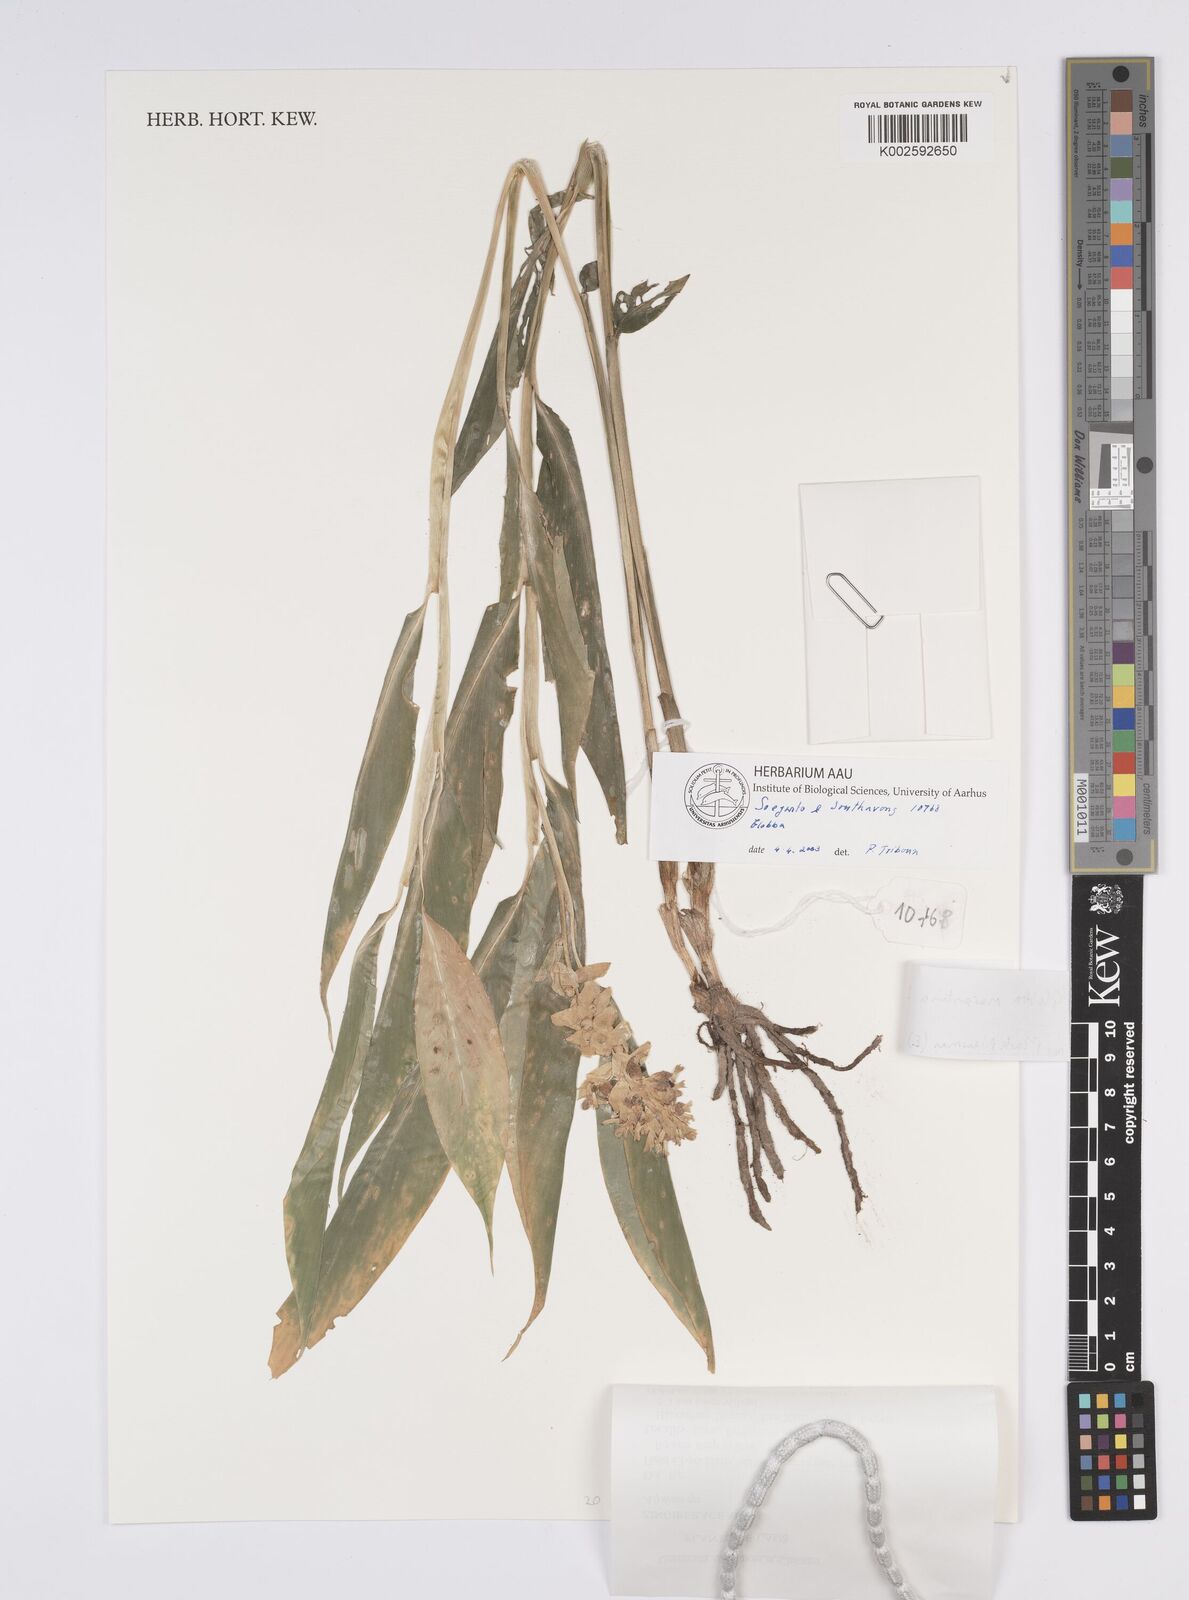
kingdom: Plantae
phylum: Tracheophyta
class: Liliopsida
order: Zingiberales
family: Zingiberaceae
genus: Globba
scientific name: Globba marantina
